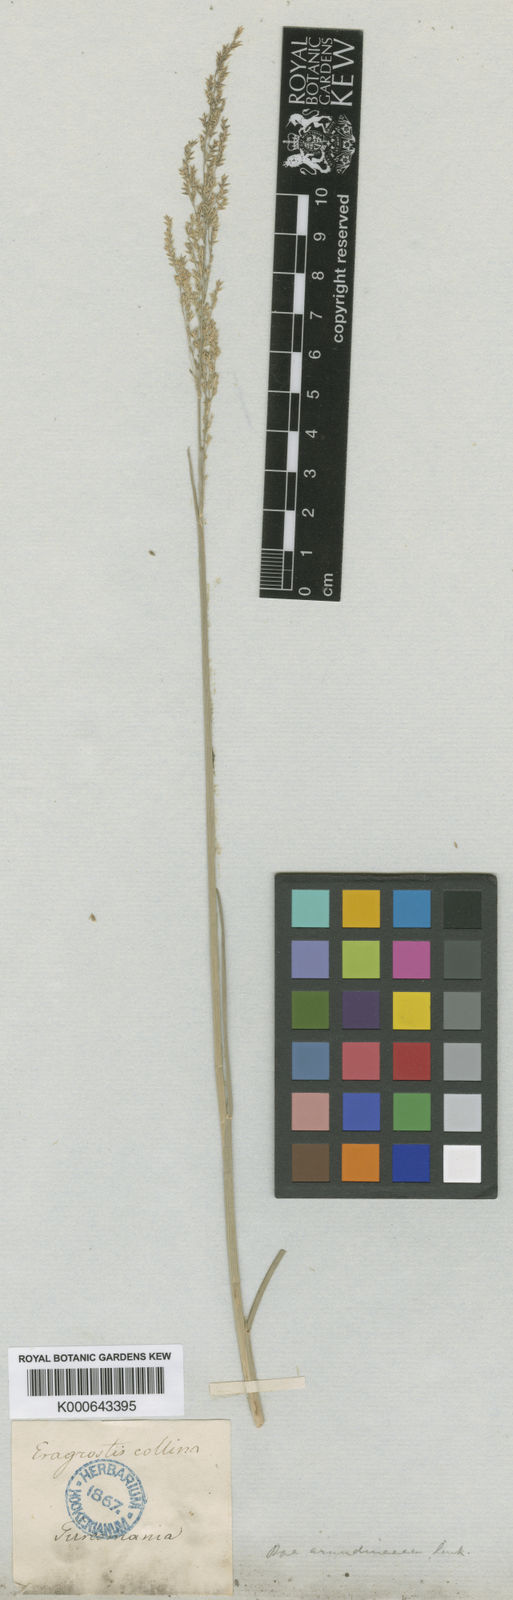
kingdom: Plantae
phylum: Tracheophyta
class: Liliopsida
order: Poales
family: Poaceae
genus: Eragrostis
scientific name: Eragrostis collina
